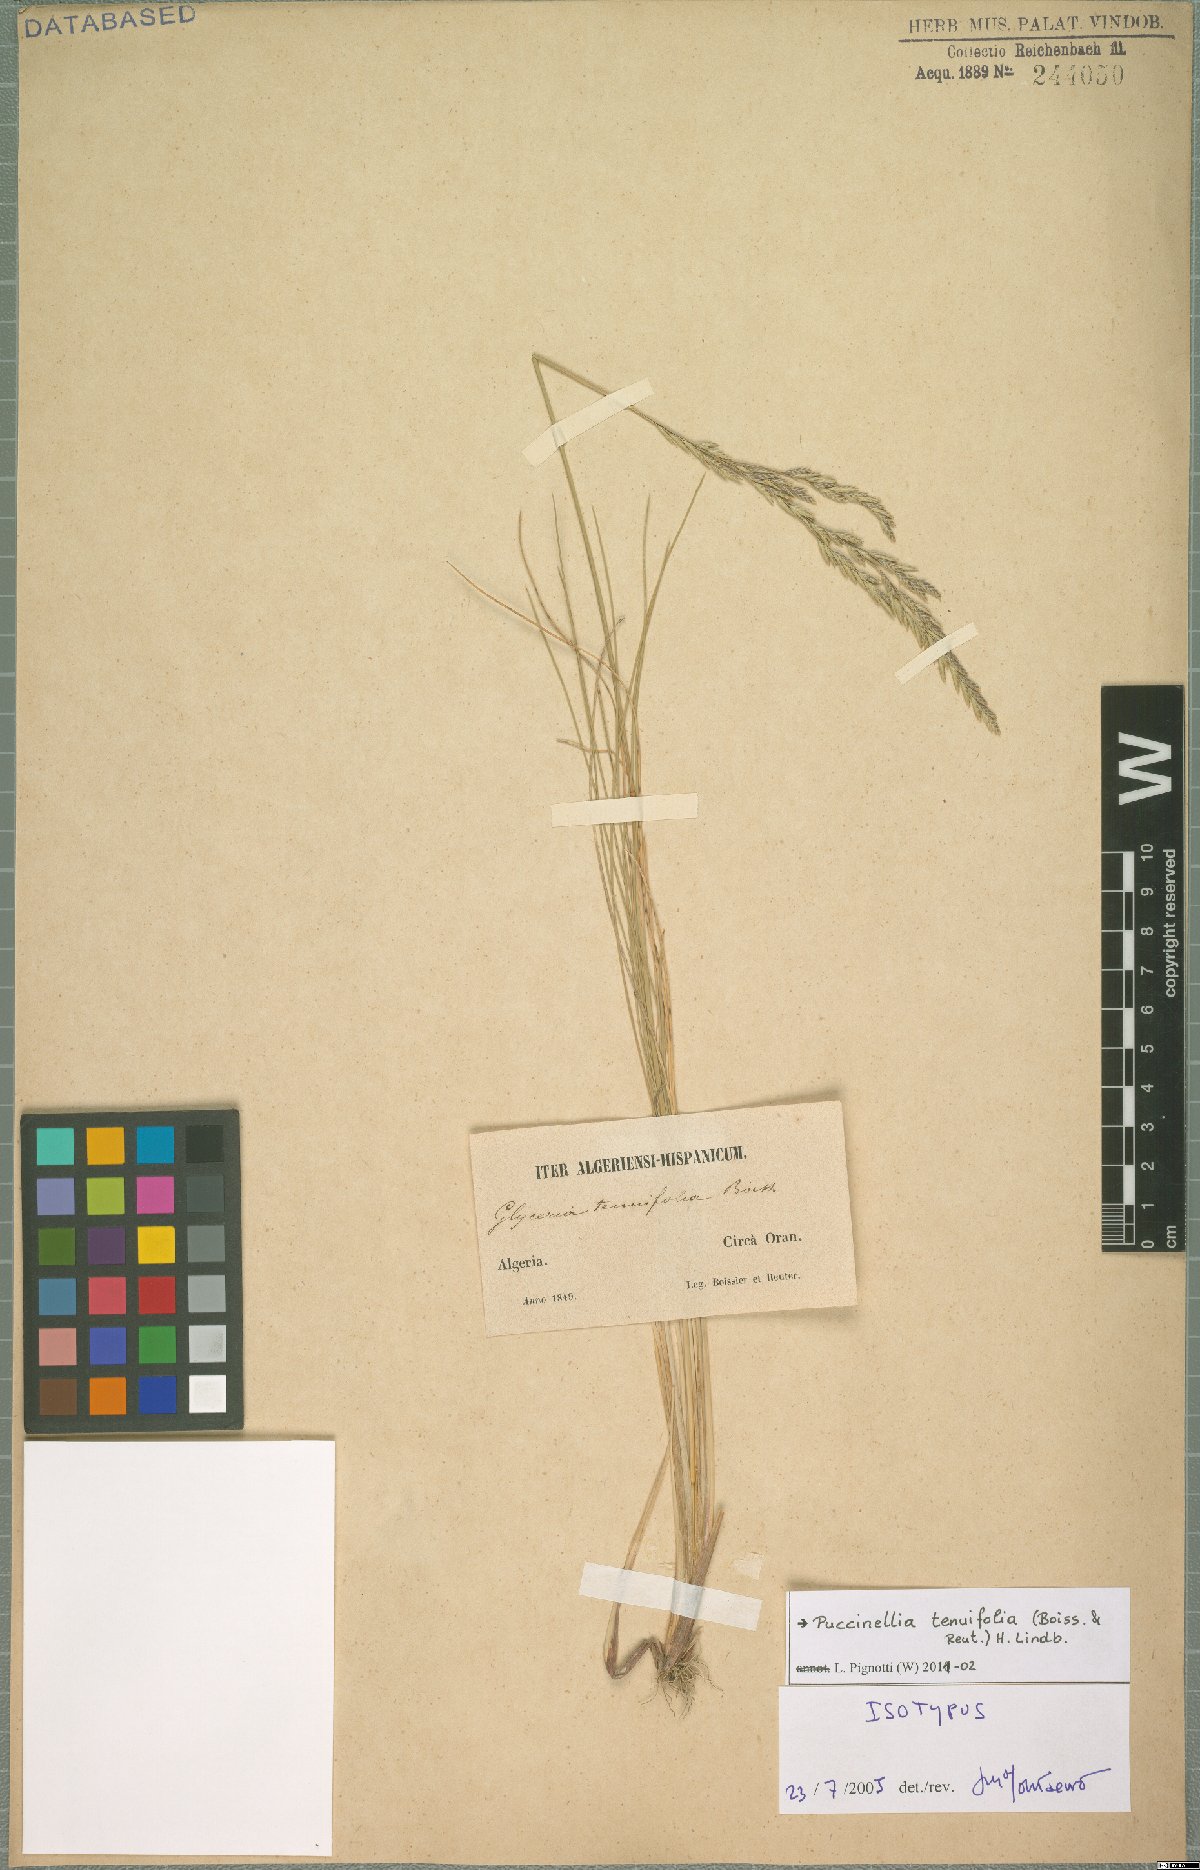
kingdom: Plantae
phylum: Tracheophyta
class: Liliopsida
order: Poales
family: Poaceae
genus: Puccinellia
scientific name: Puccinellia tenuifolia
